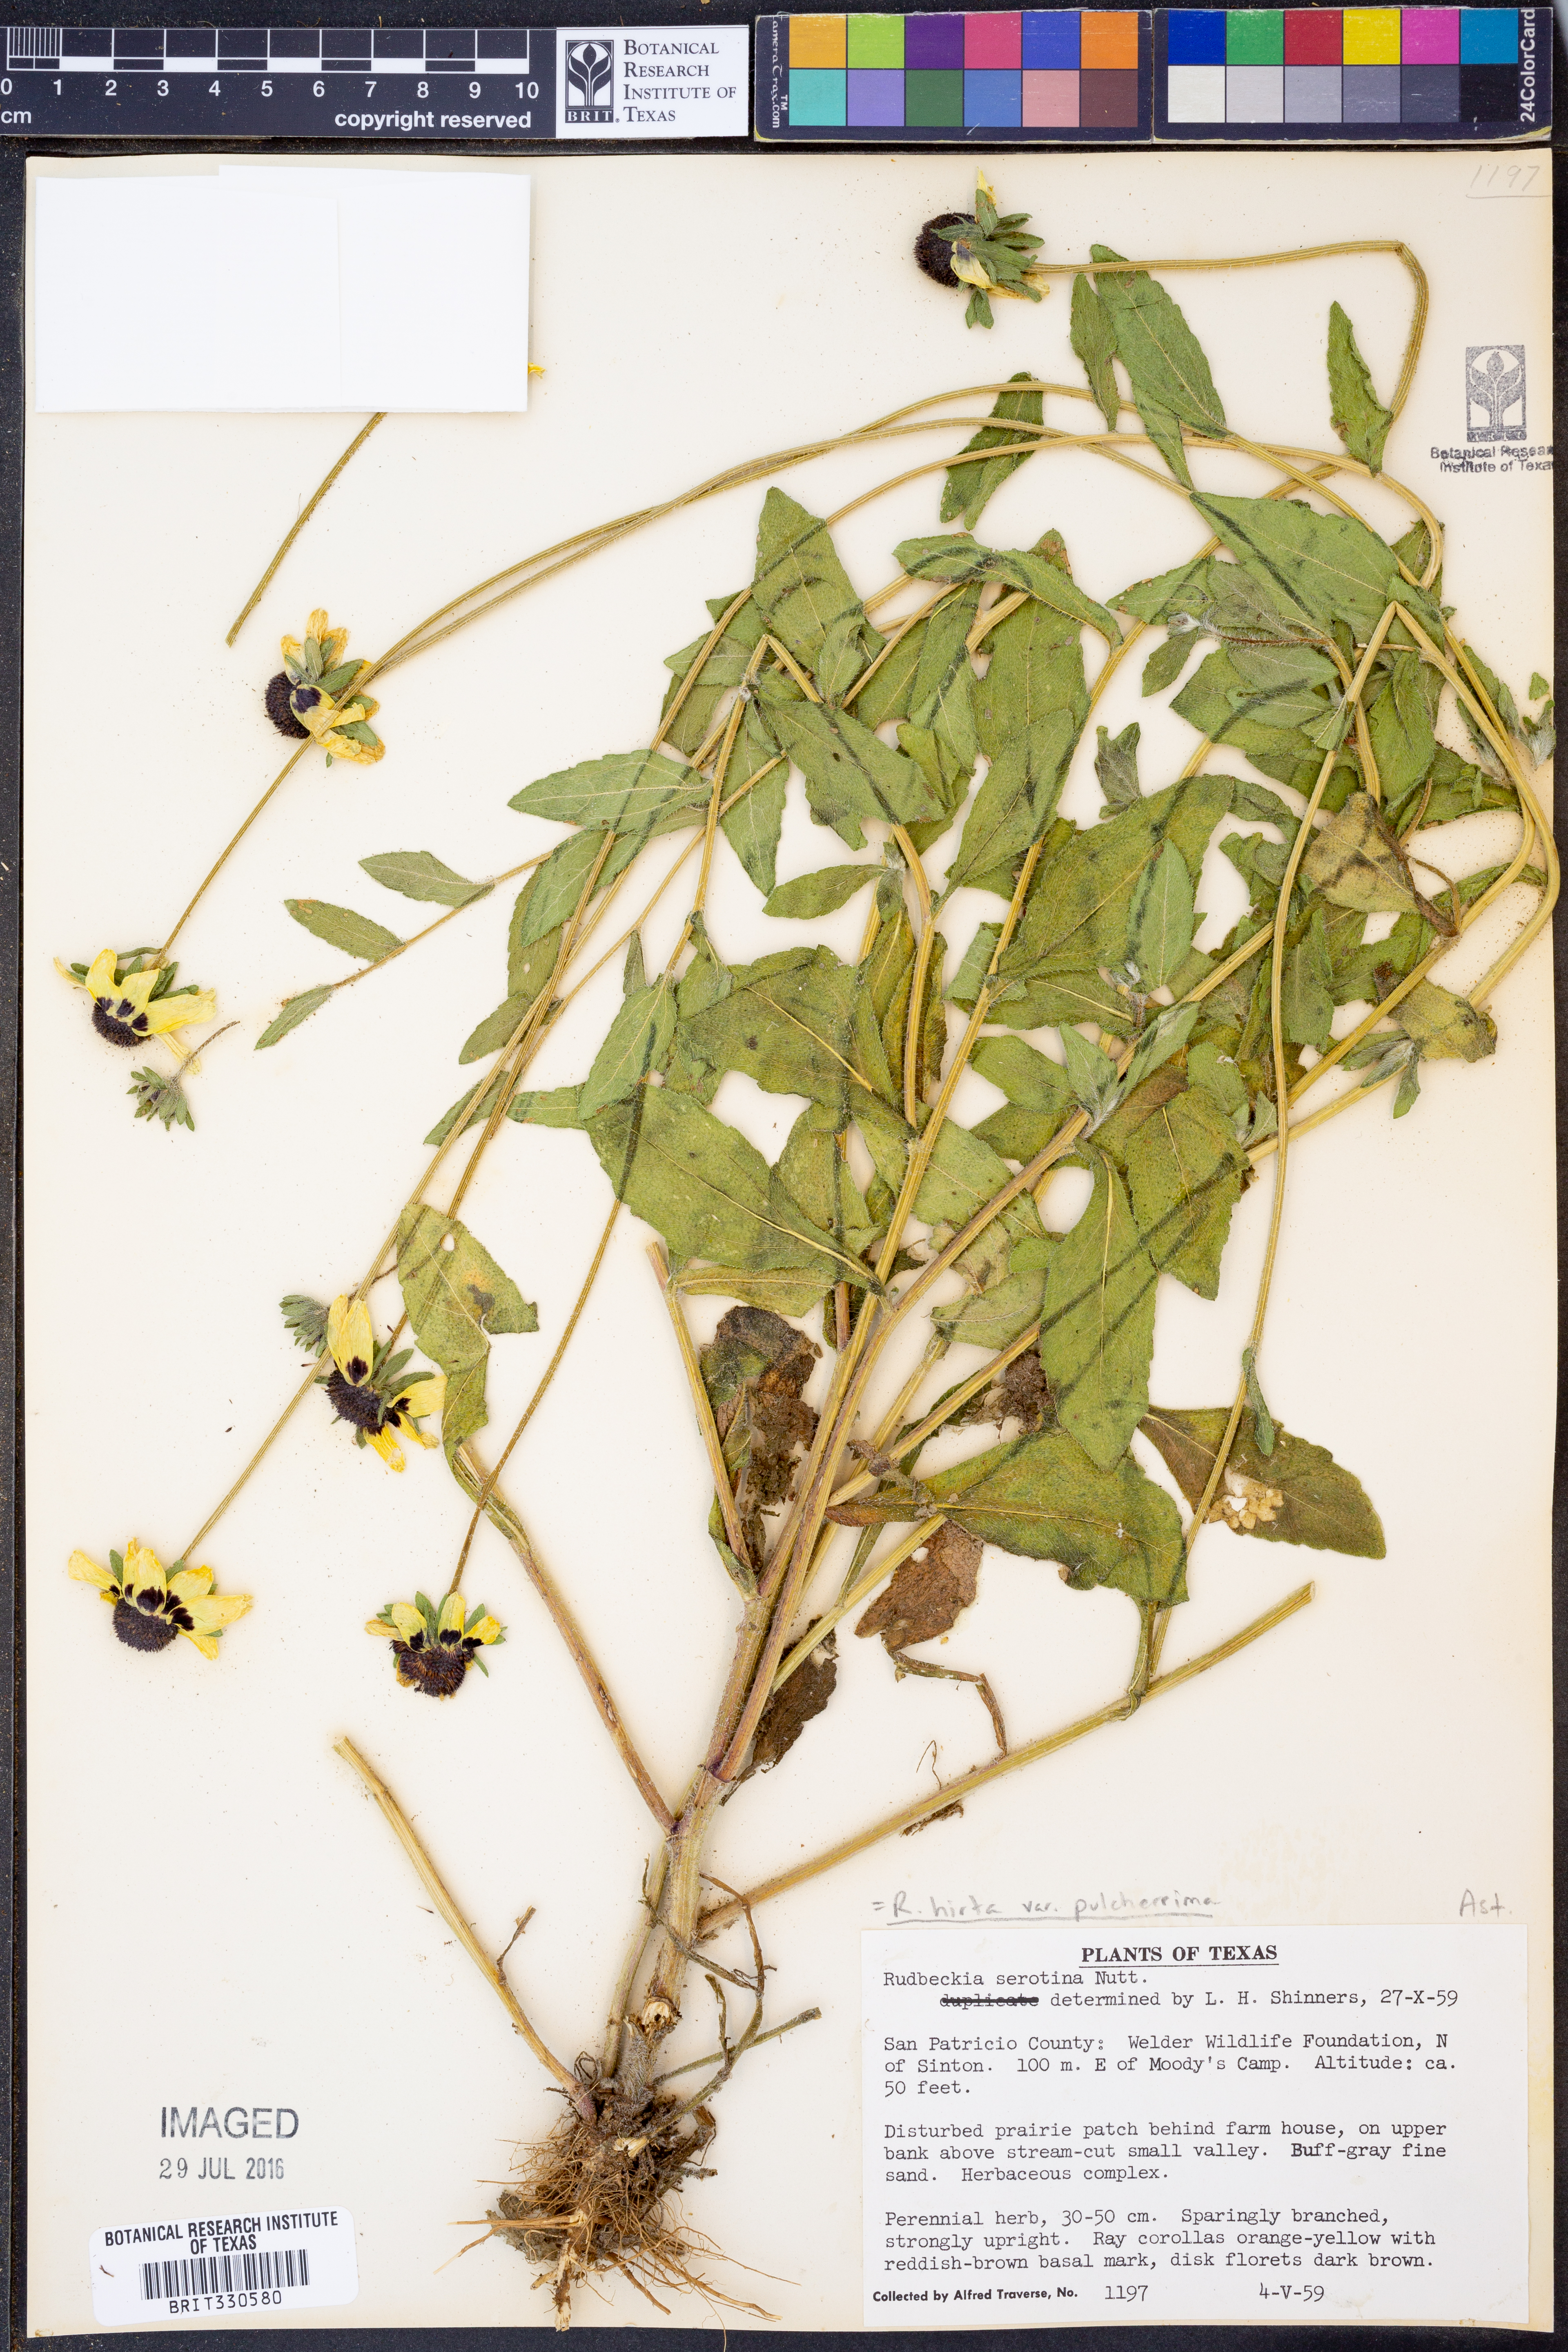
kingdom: Plantae
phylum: Tracheophyta
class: Magnoliopsida
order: Asterales
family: Asteraceae
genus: Rudbeckia
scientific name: Rudbeckia hirta
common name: Black-eyed-susan
